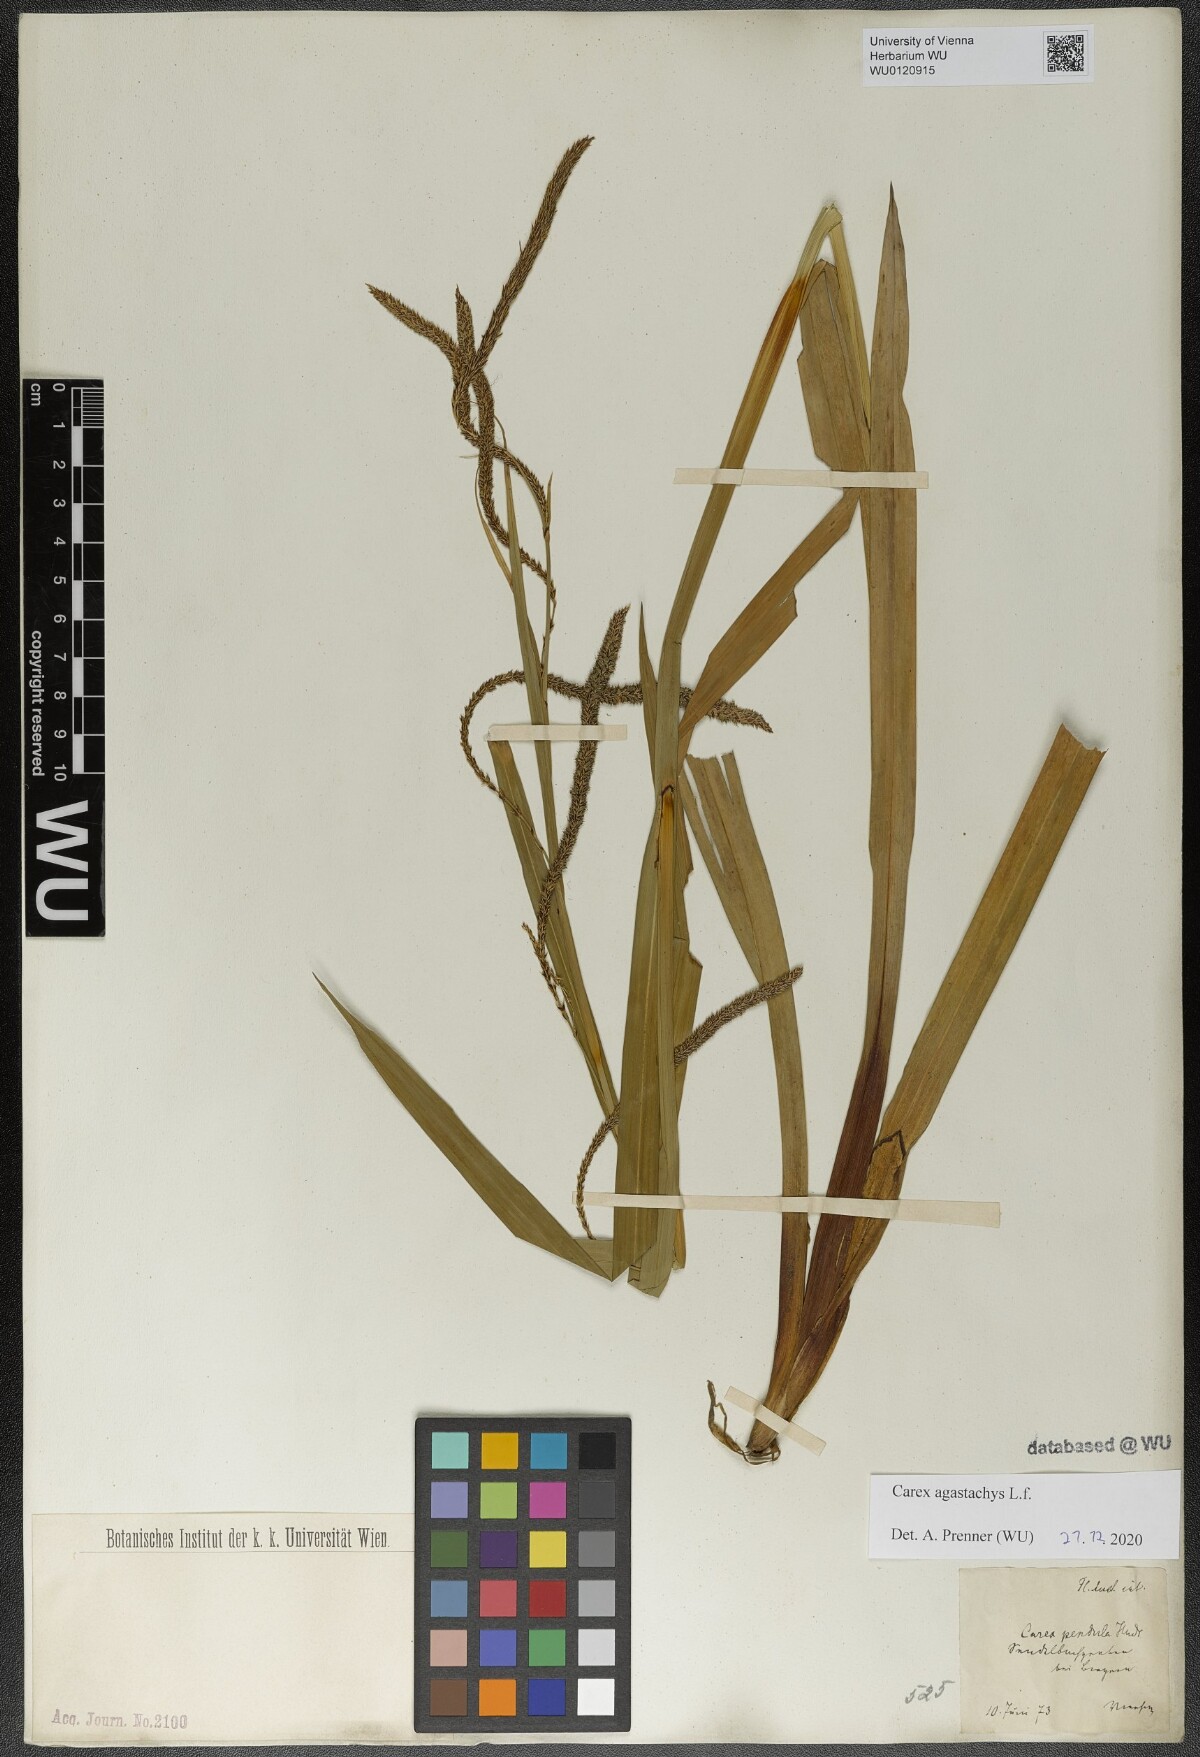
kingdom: Plantae
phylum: Tracheophyta
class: Liliopsida
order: Poales
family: Cyperaceae
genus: Carex
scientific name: Carex agastachys
